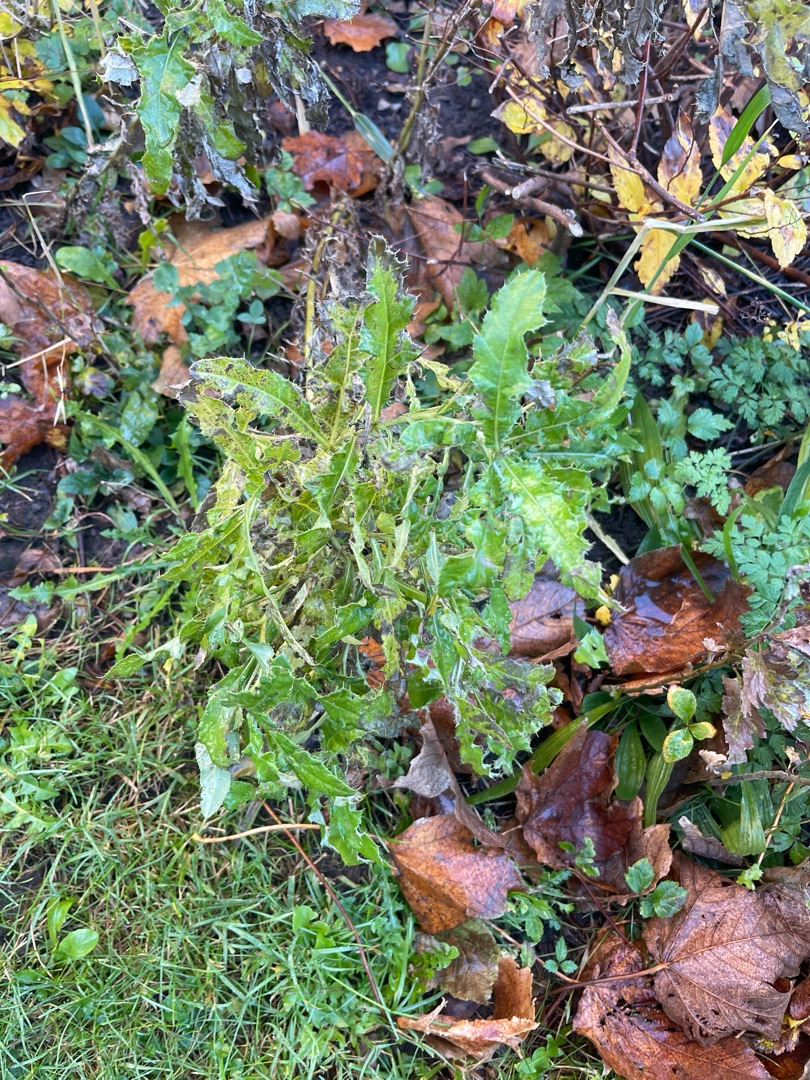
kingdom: Plantae
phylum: Tracheophyta
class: Magnoliopsida
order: Asterales
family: Asteraceae
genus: Cirsium
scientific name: Cirsium arvense
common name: Ager-tidsel
